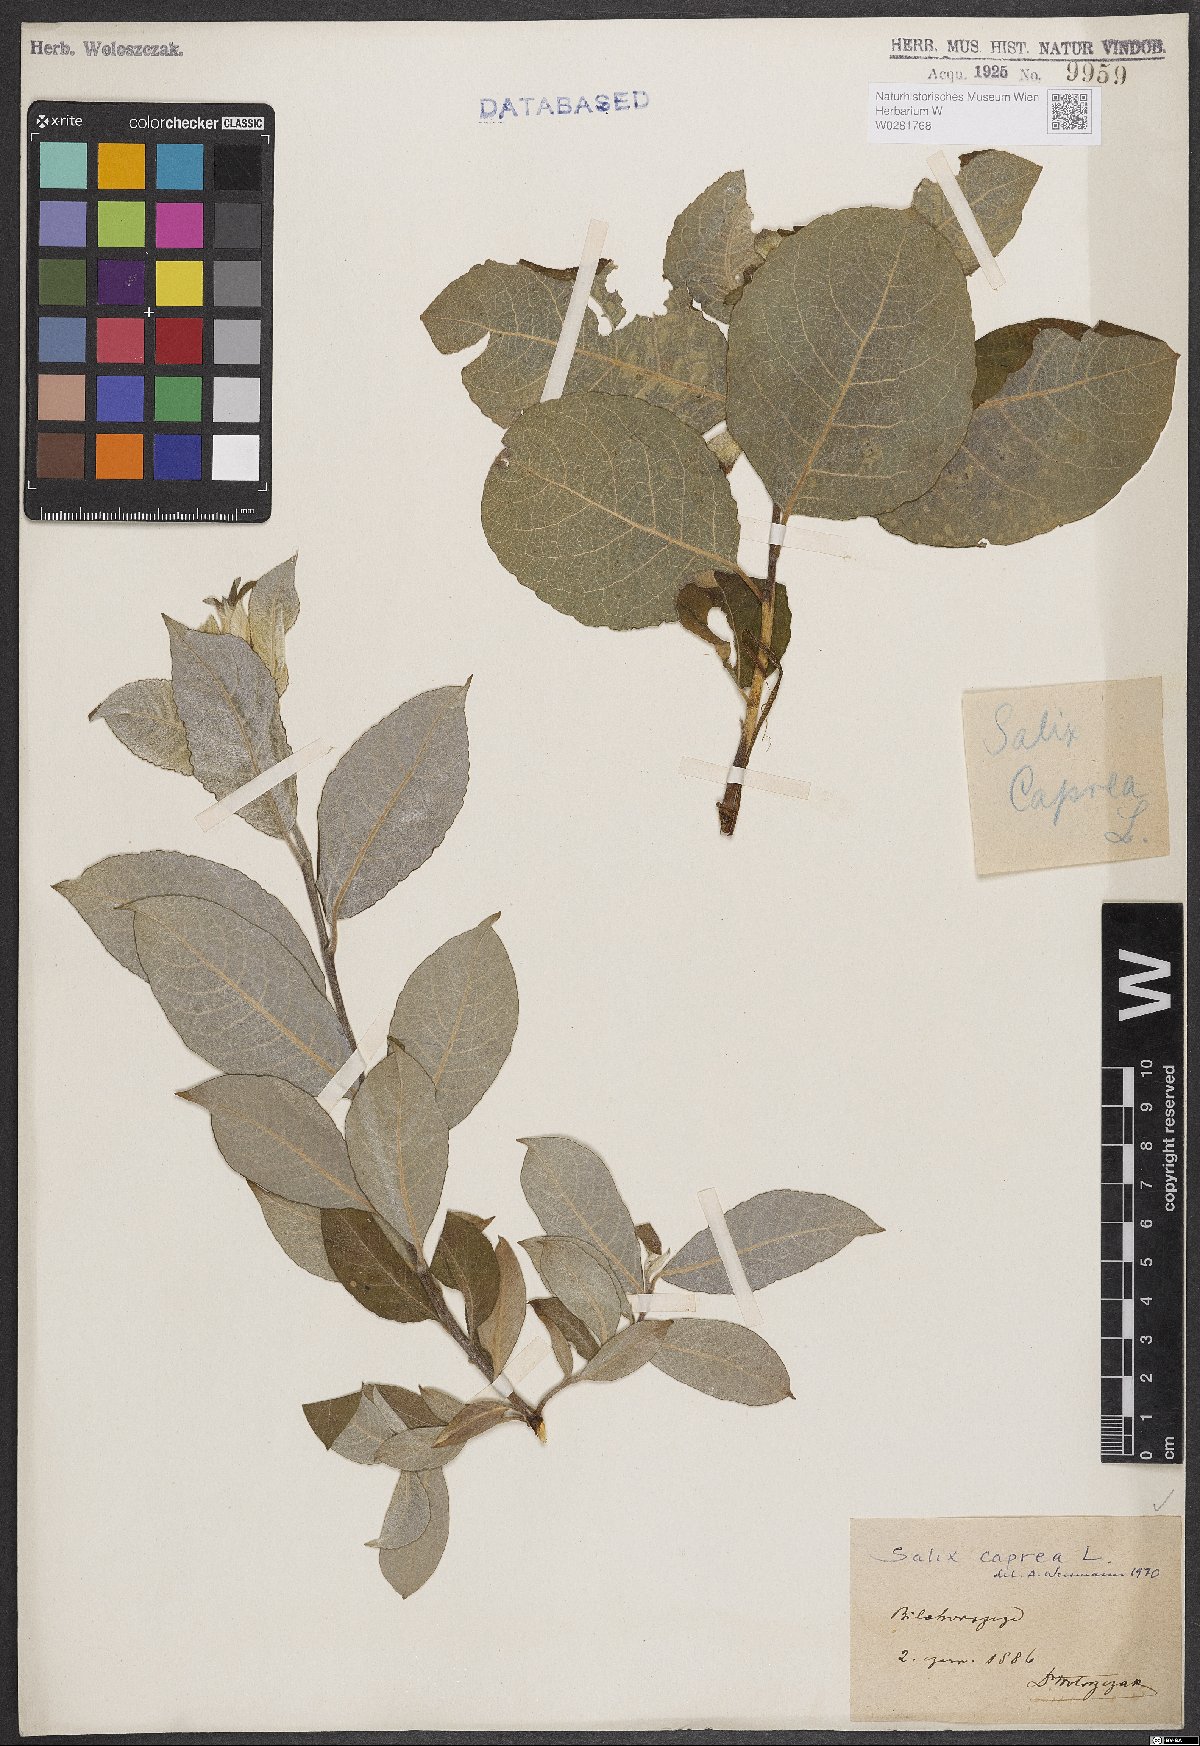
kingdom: Plantae
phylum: Tracheophyta
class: Magnoliopsida
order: Malpighiales
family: Salicaceae
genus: Salix
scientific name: Salix caprea
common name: Goat willow
